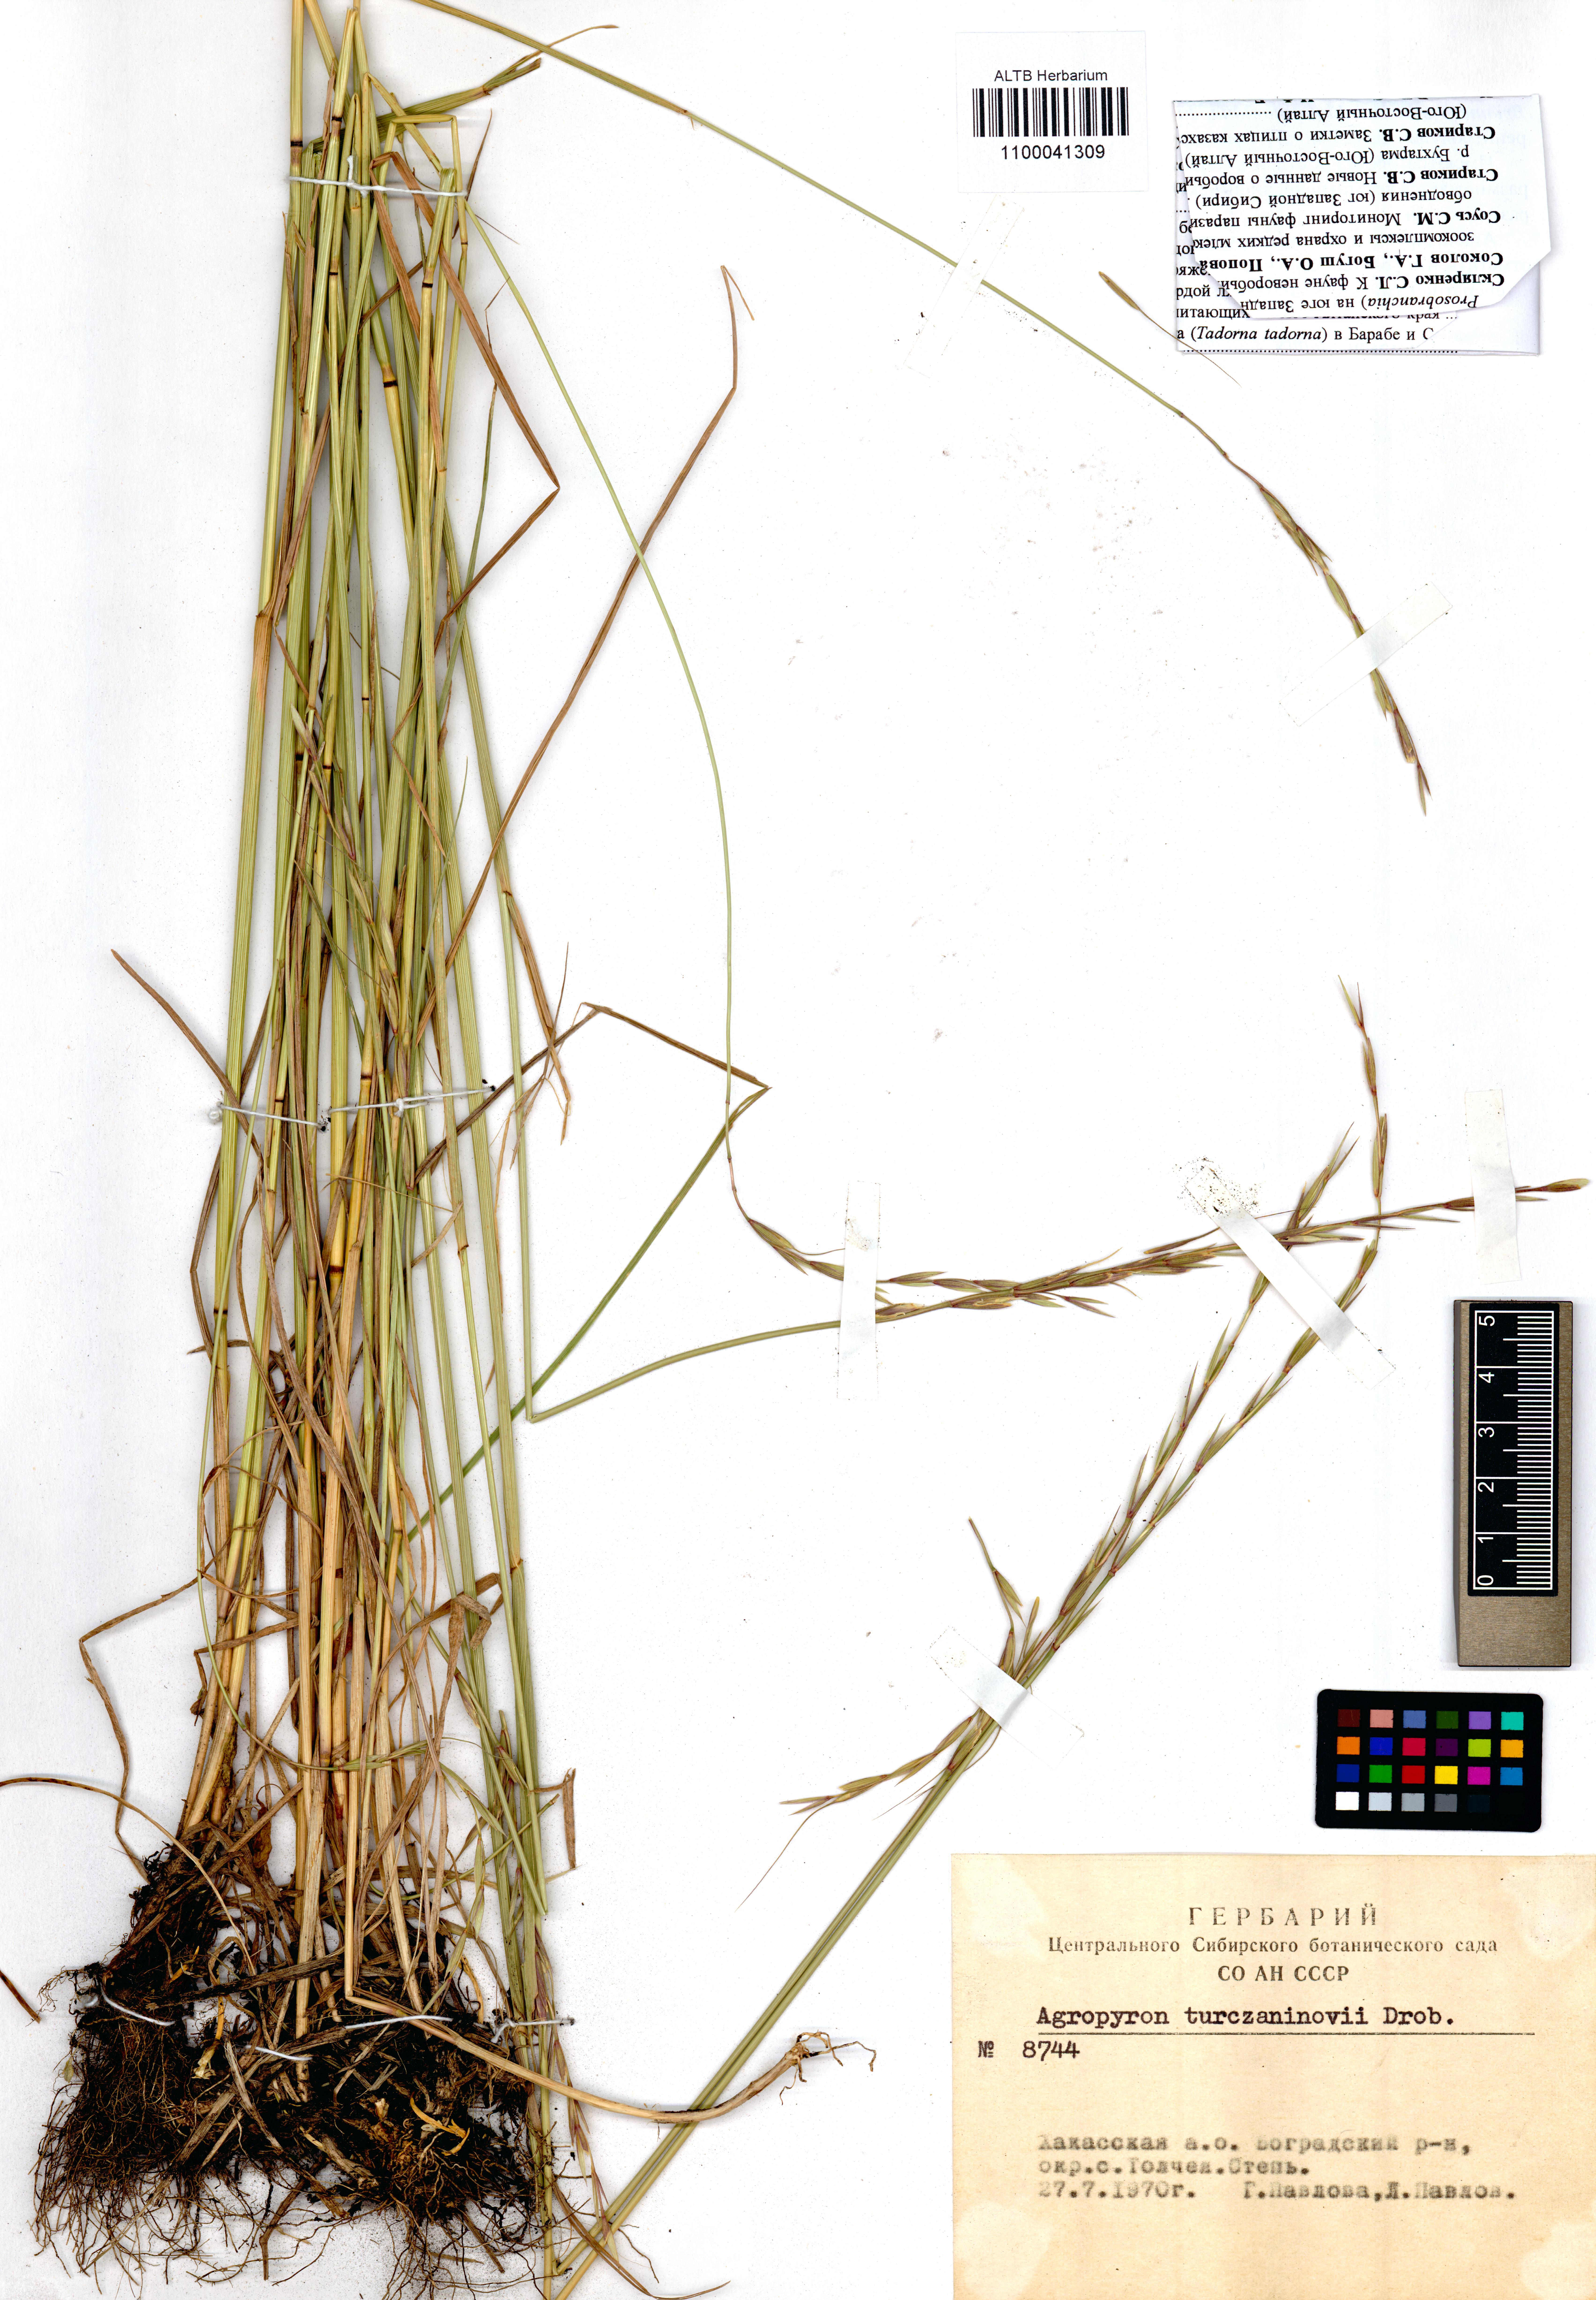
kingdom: Plantae
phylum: Tracheophyta
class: Liliopsida
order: Poales
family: Poaceae
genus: Elymus
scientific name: Elymus gmelinii
